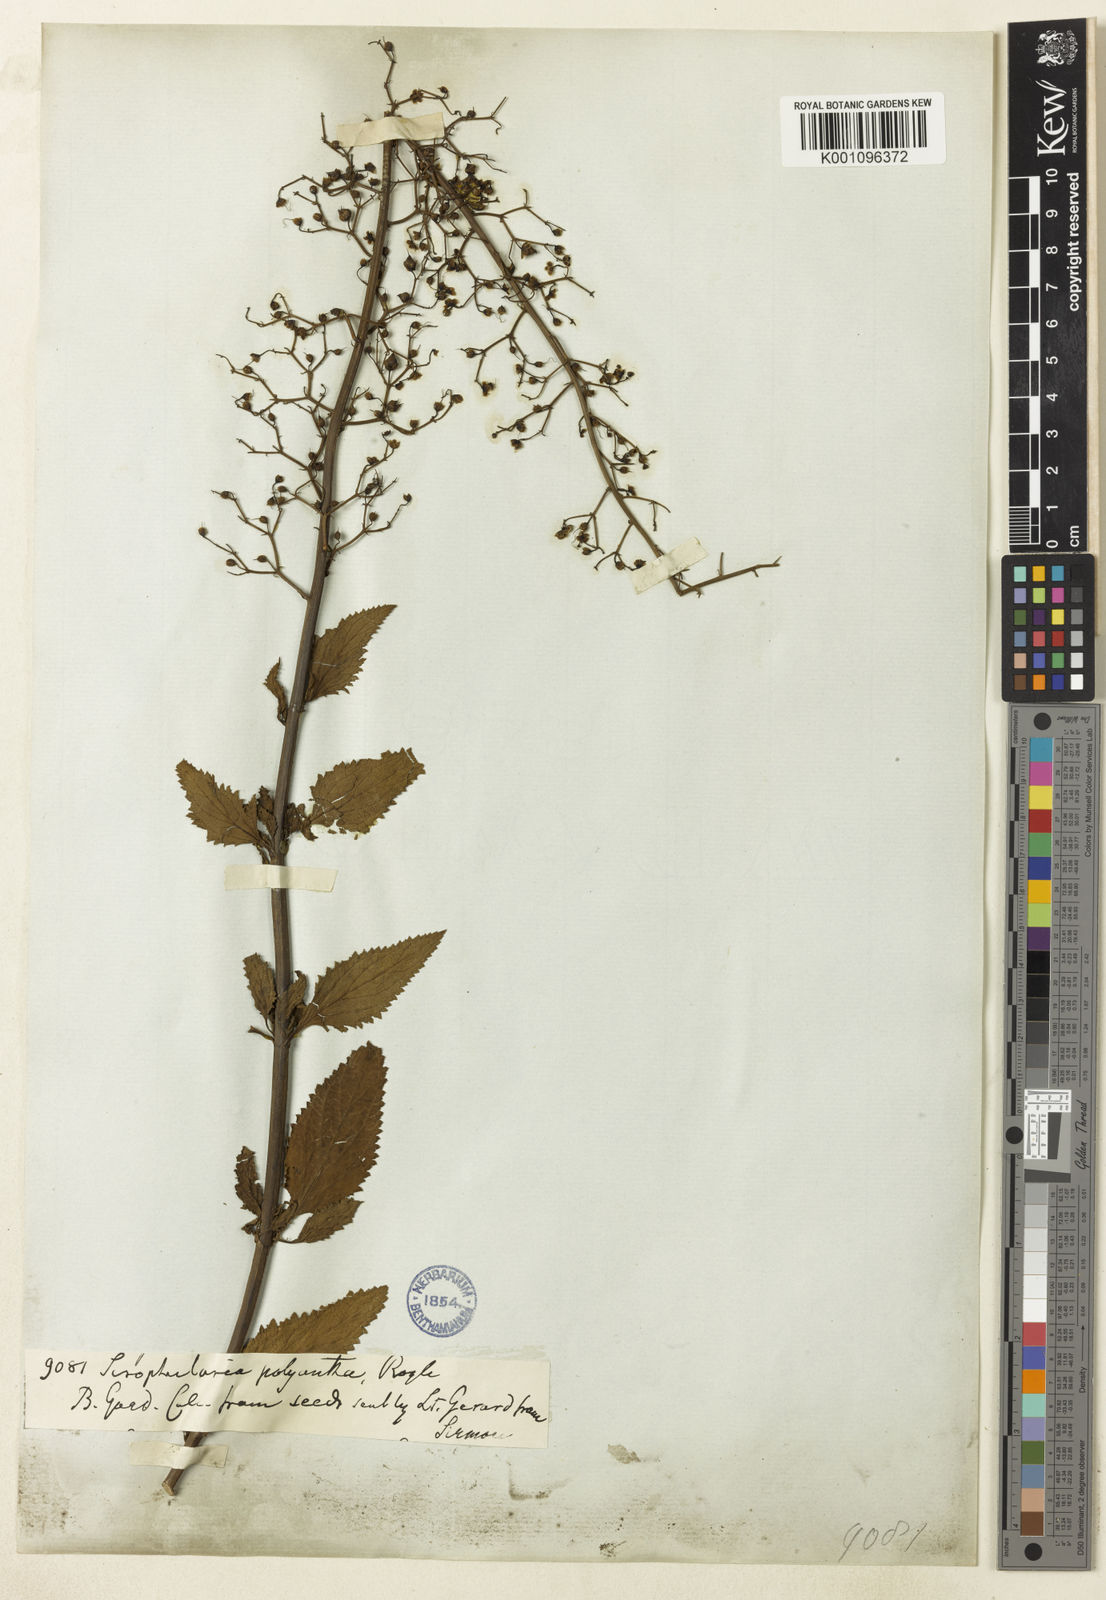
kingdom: Plantae
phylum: Tracheophyta
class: Magnoliopsida
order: Lamiales
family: Scrophulariaceae
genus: Scrophularia
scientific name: Scrophularia polyantha
